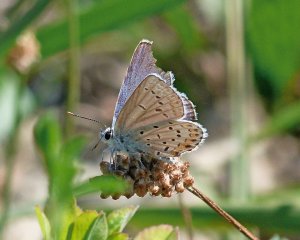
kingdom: Animalia
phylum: Arthropoda
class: Insecta
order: Lepidoptera
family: Lycaenidae
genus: Lycaeides
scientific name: Lycaeides melissa
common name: Melissa Blue
